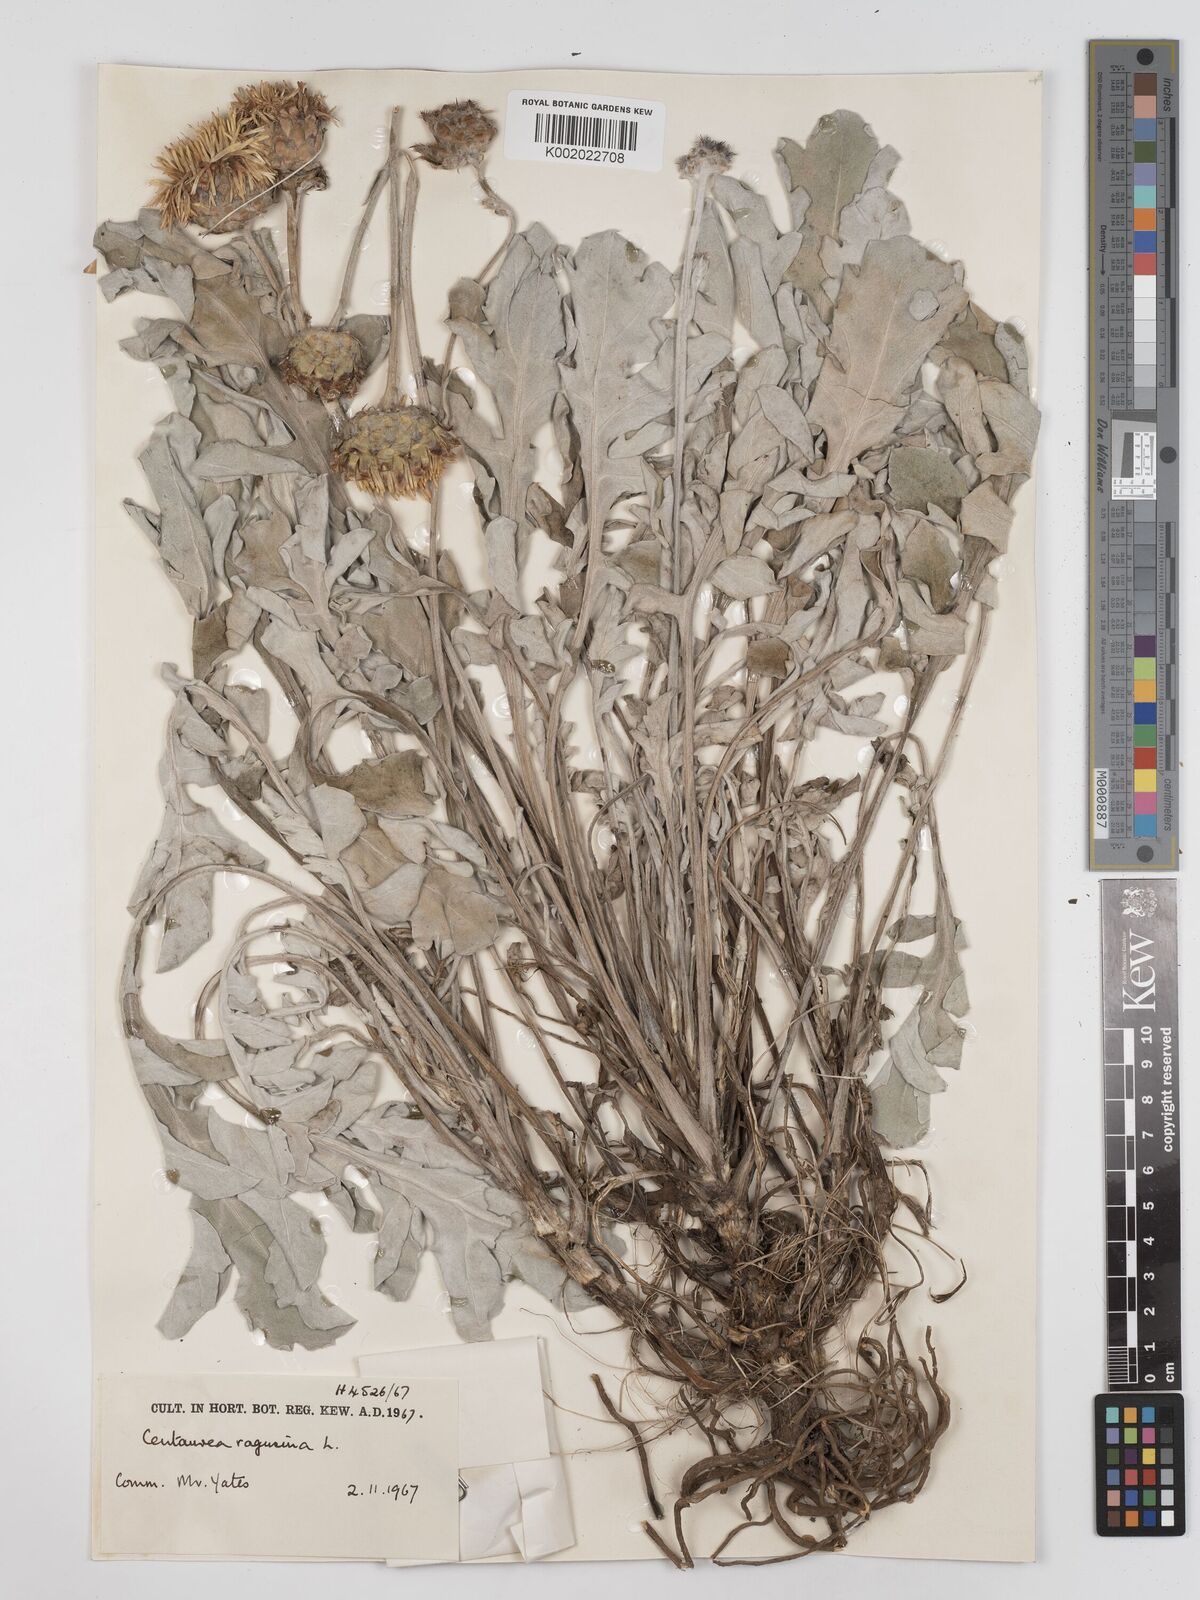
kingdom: Plantae
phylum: Tracheophyta
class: Magnoliopsida
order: Asterales
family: Asteraceae
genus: Centaurea
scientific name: Centaurea ragusina
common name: Dusty-miller
